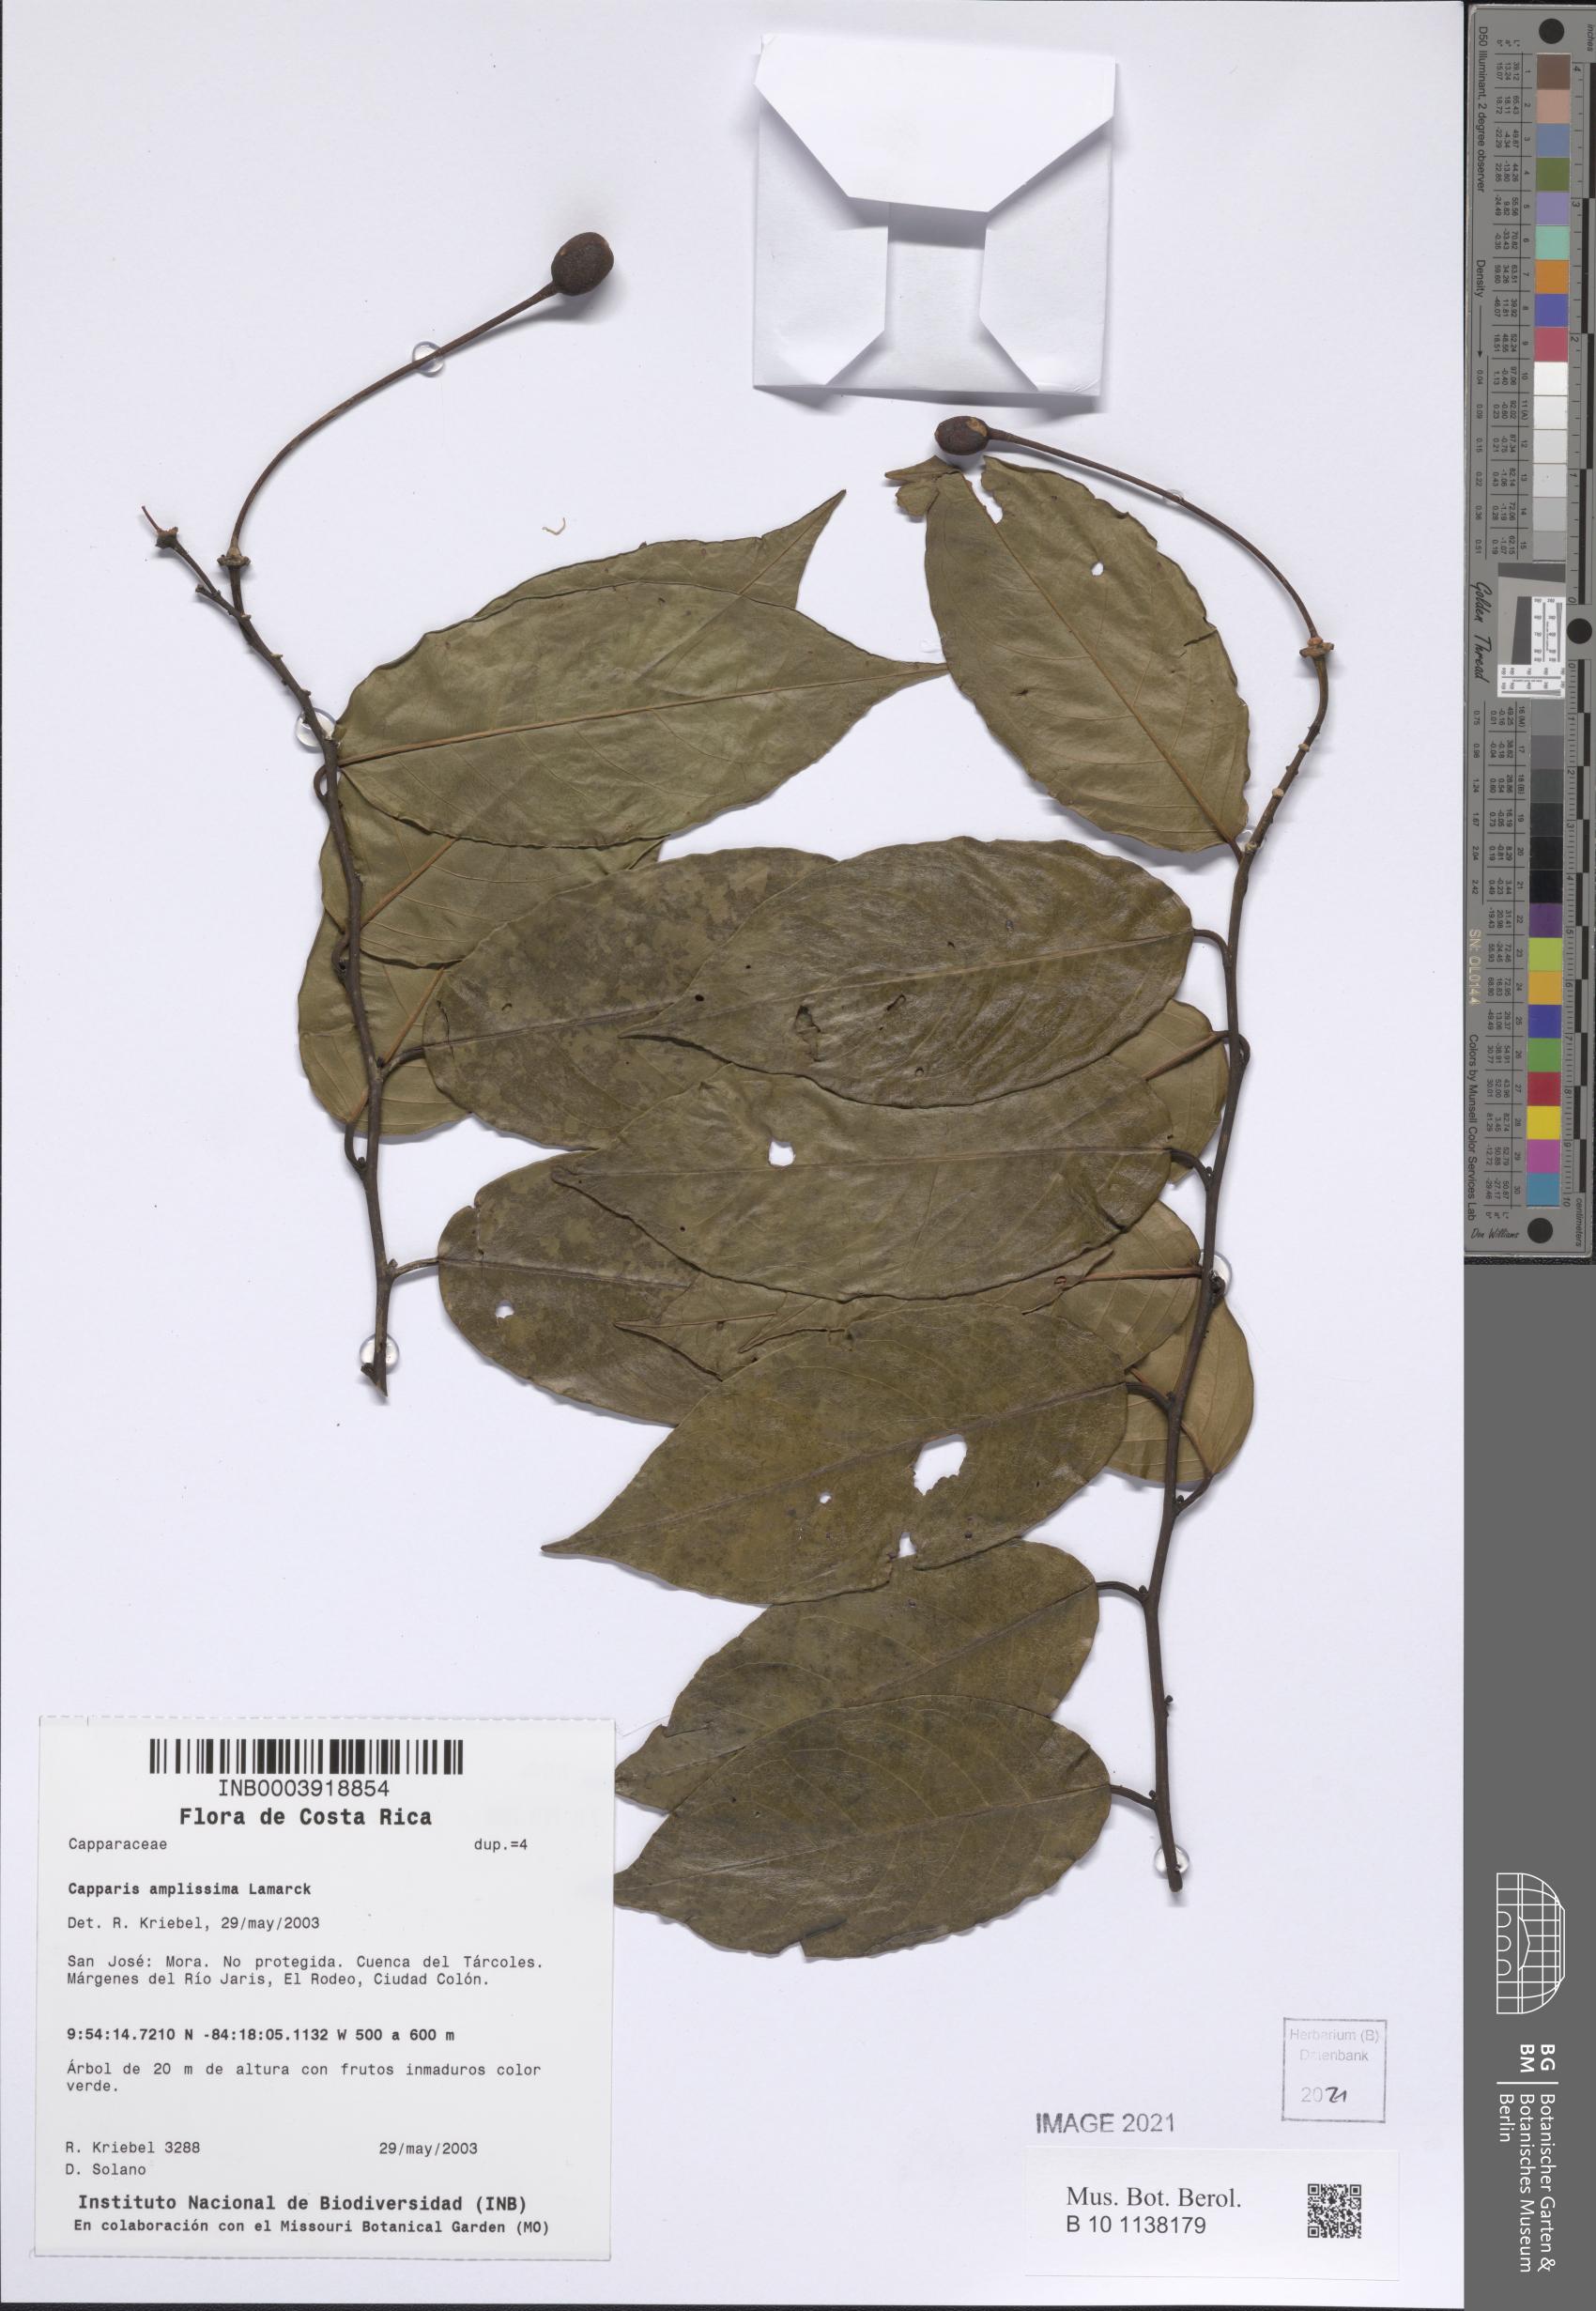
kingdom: Plantae
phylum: Tracheophyta
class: Magnoliopsida
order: Brassicales
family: Capparaceae
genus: Cynophalla
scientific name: Cynophalla amplissima
